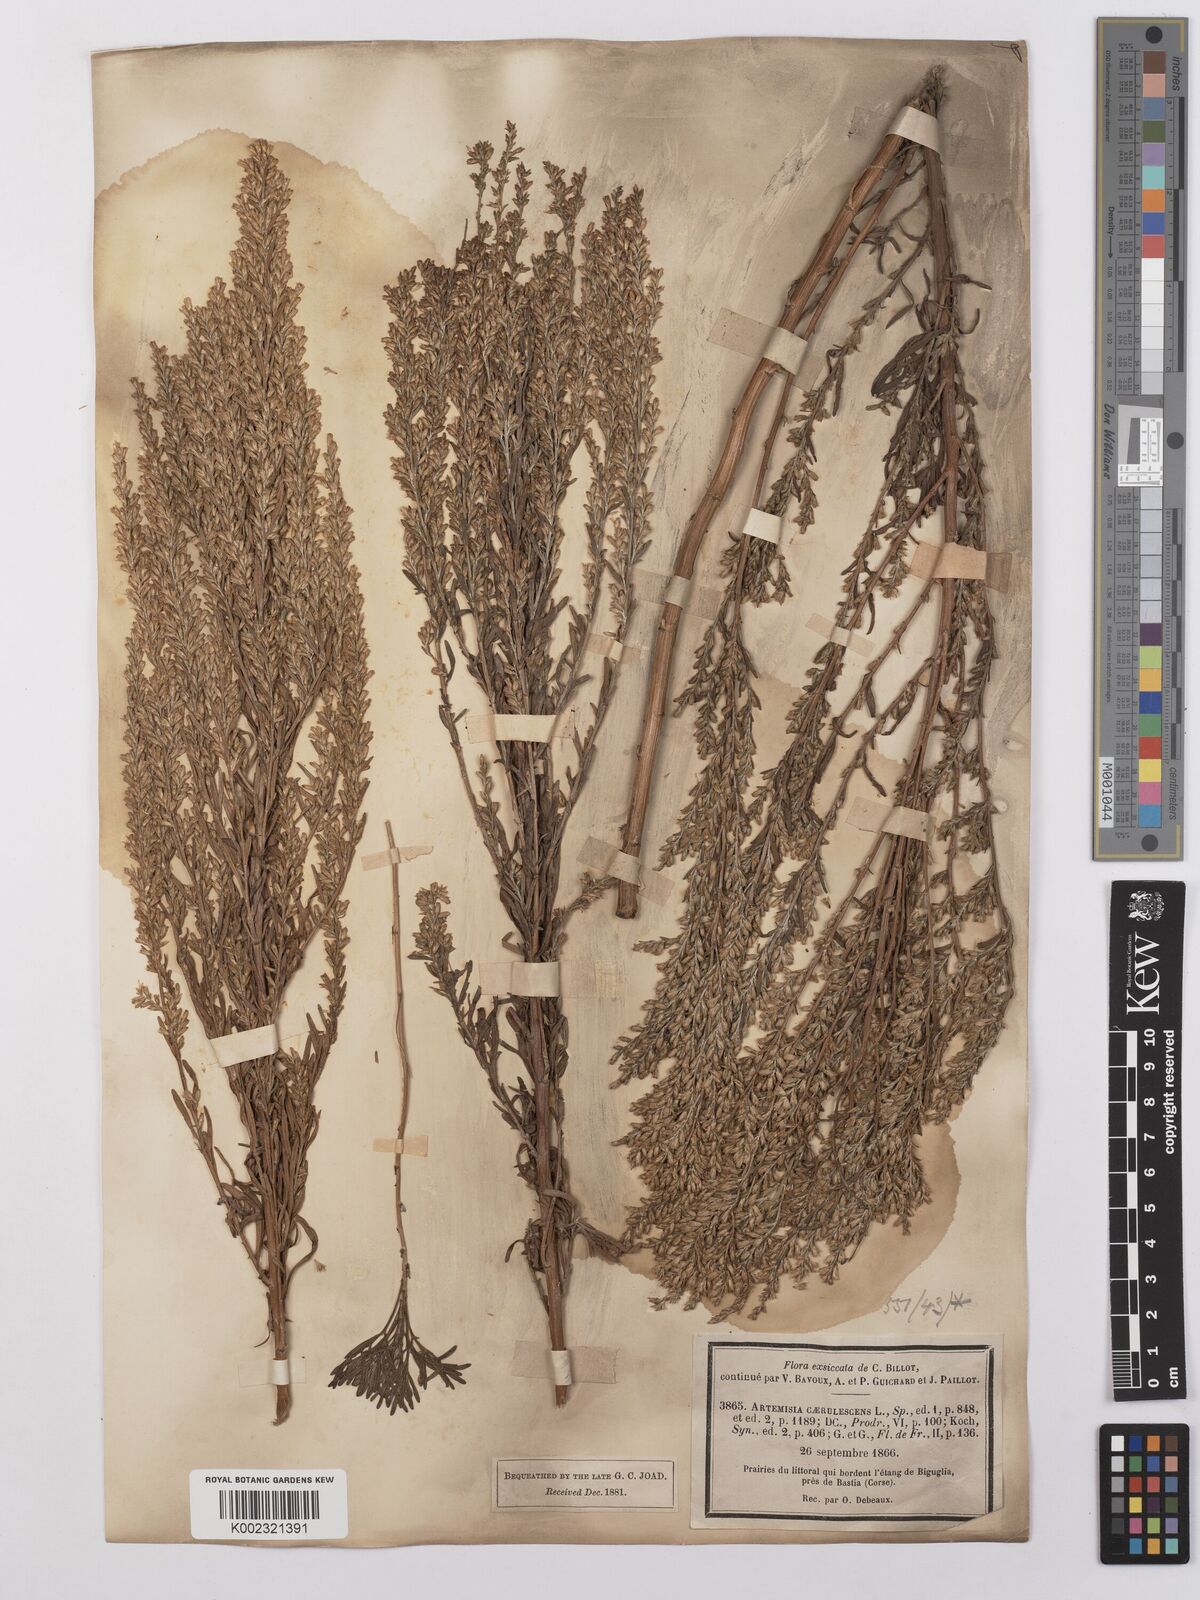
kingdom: Plantae
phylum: Tracheophyta
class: Magnoliopsida
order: Asterales
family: Asteraceae
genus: Artemisia
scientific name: Artemisia caerulescens
